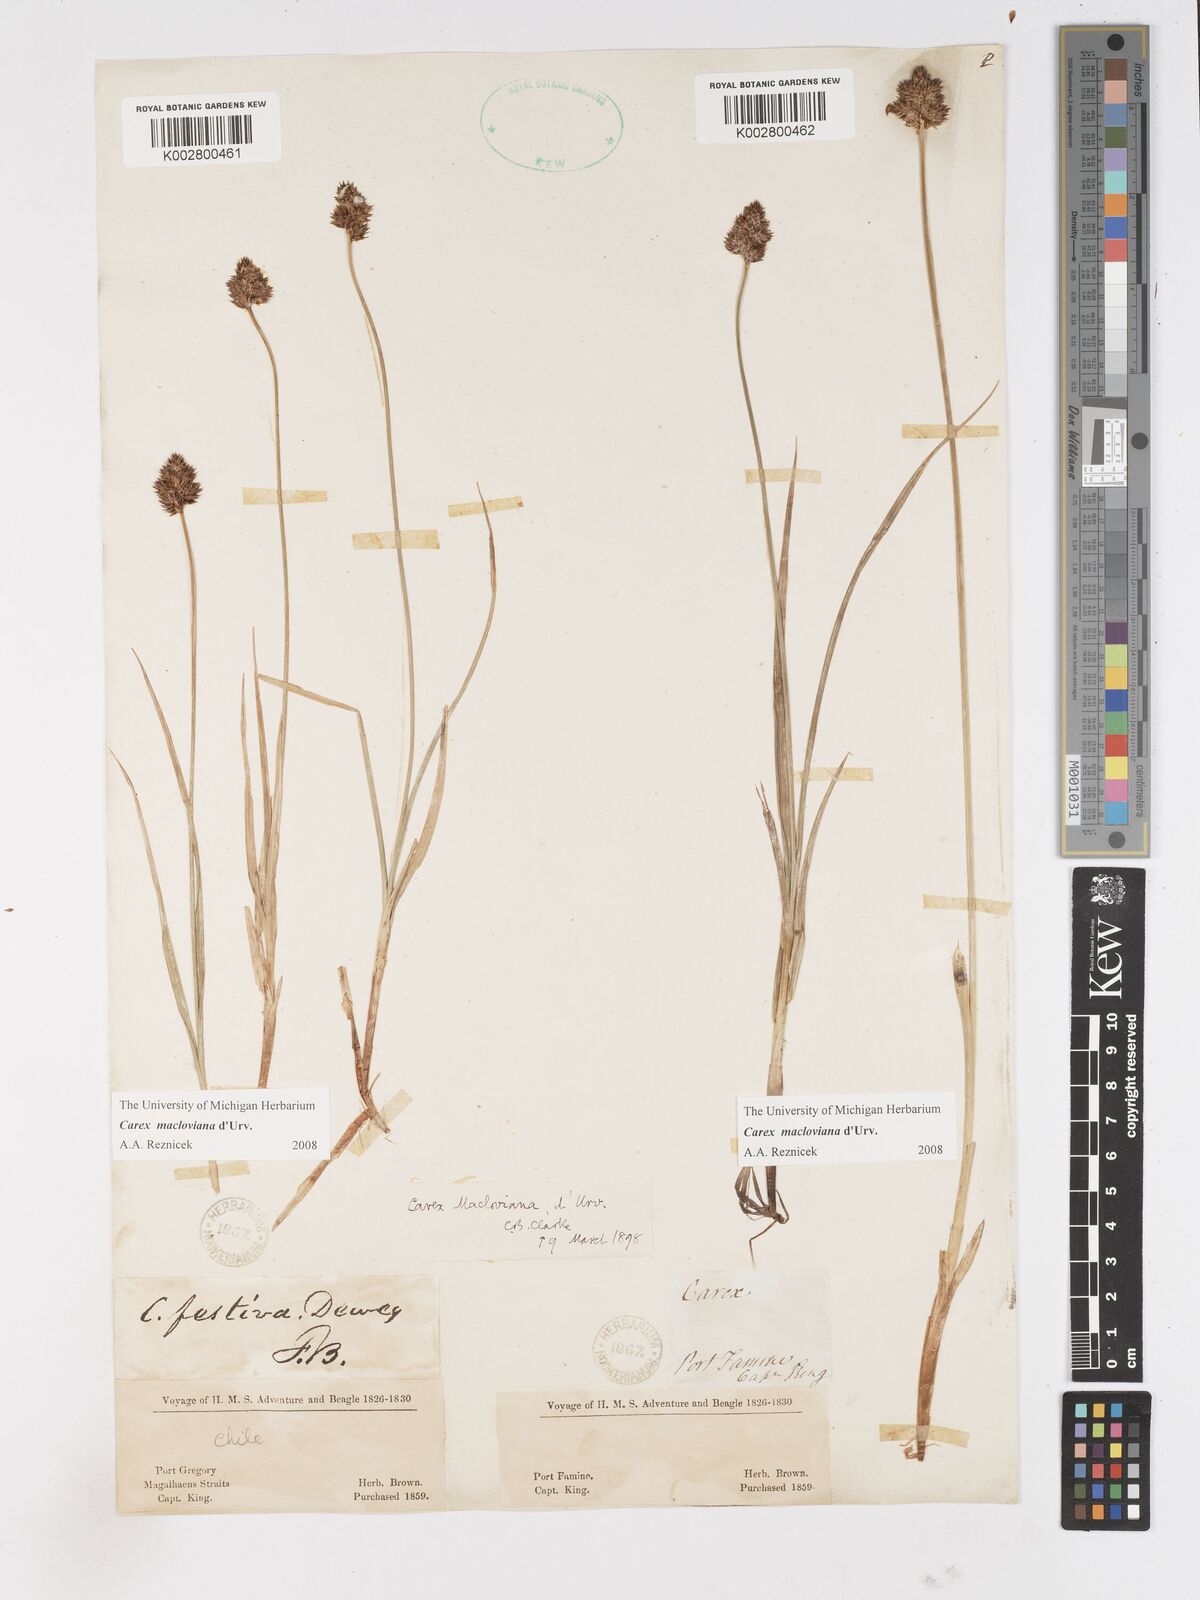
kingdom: Plantae
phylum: Tracheophyta
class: Liliopsida
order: Poales
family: Cyperaceae
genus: Carex
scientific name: Carex macloviana
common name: Falkland island sedge
